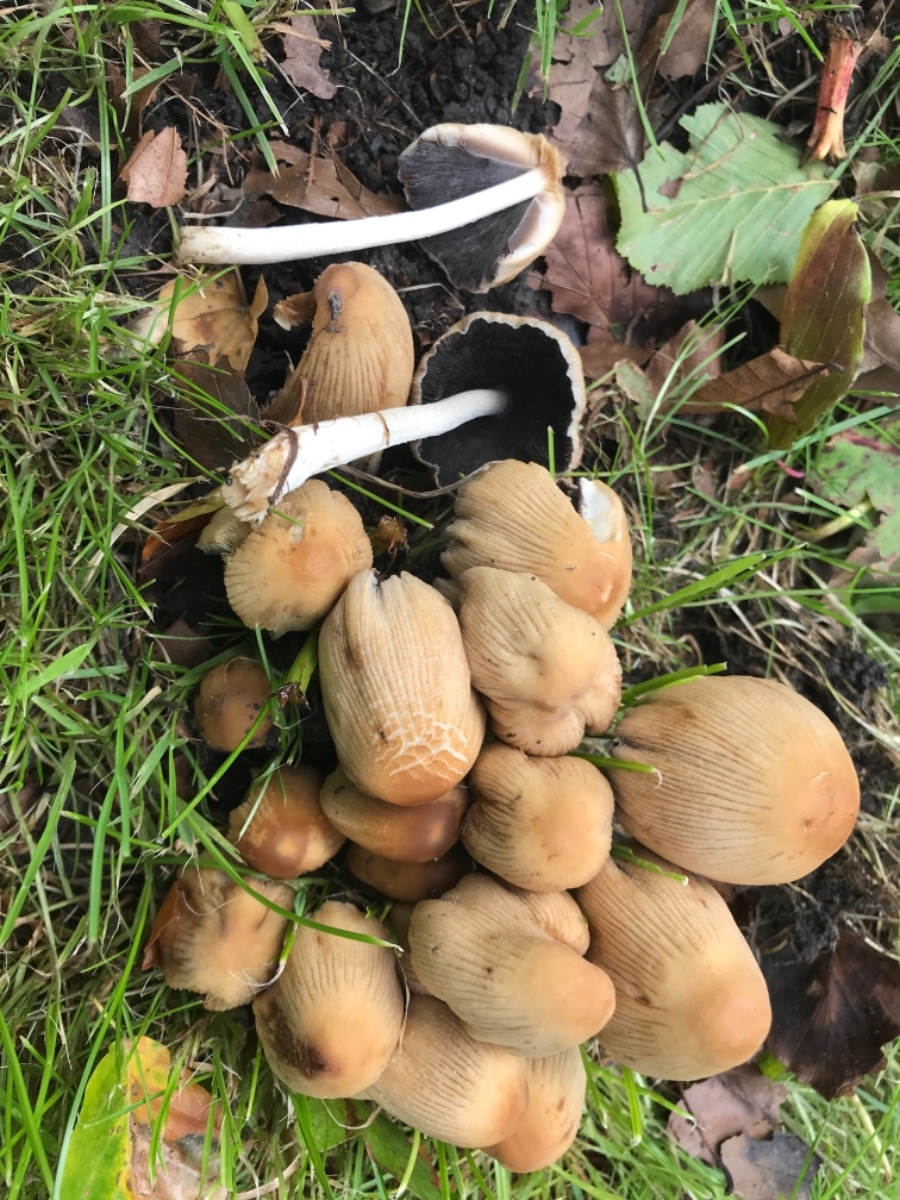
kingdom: Fungi
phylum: Basidiomycota
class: Agaricomycetes
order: Agaricales
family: Psathyrellaceae
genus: Coprinellus
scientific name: Coprinellus micaceus
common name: glimmer-blækhat
